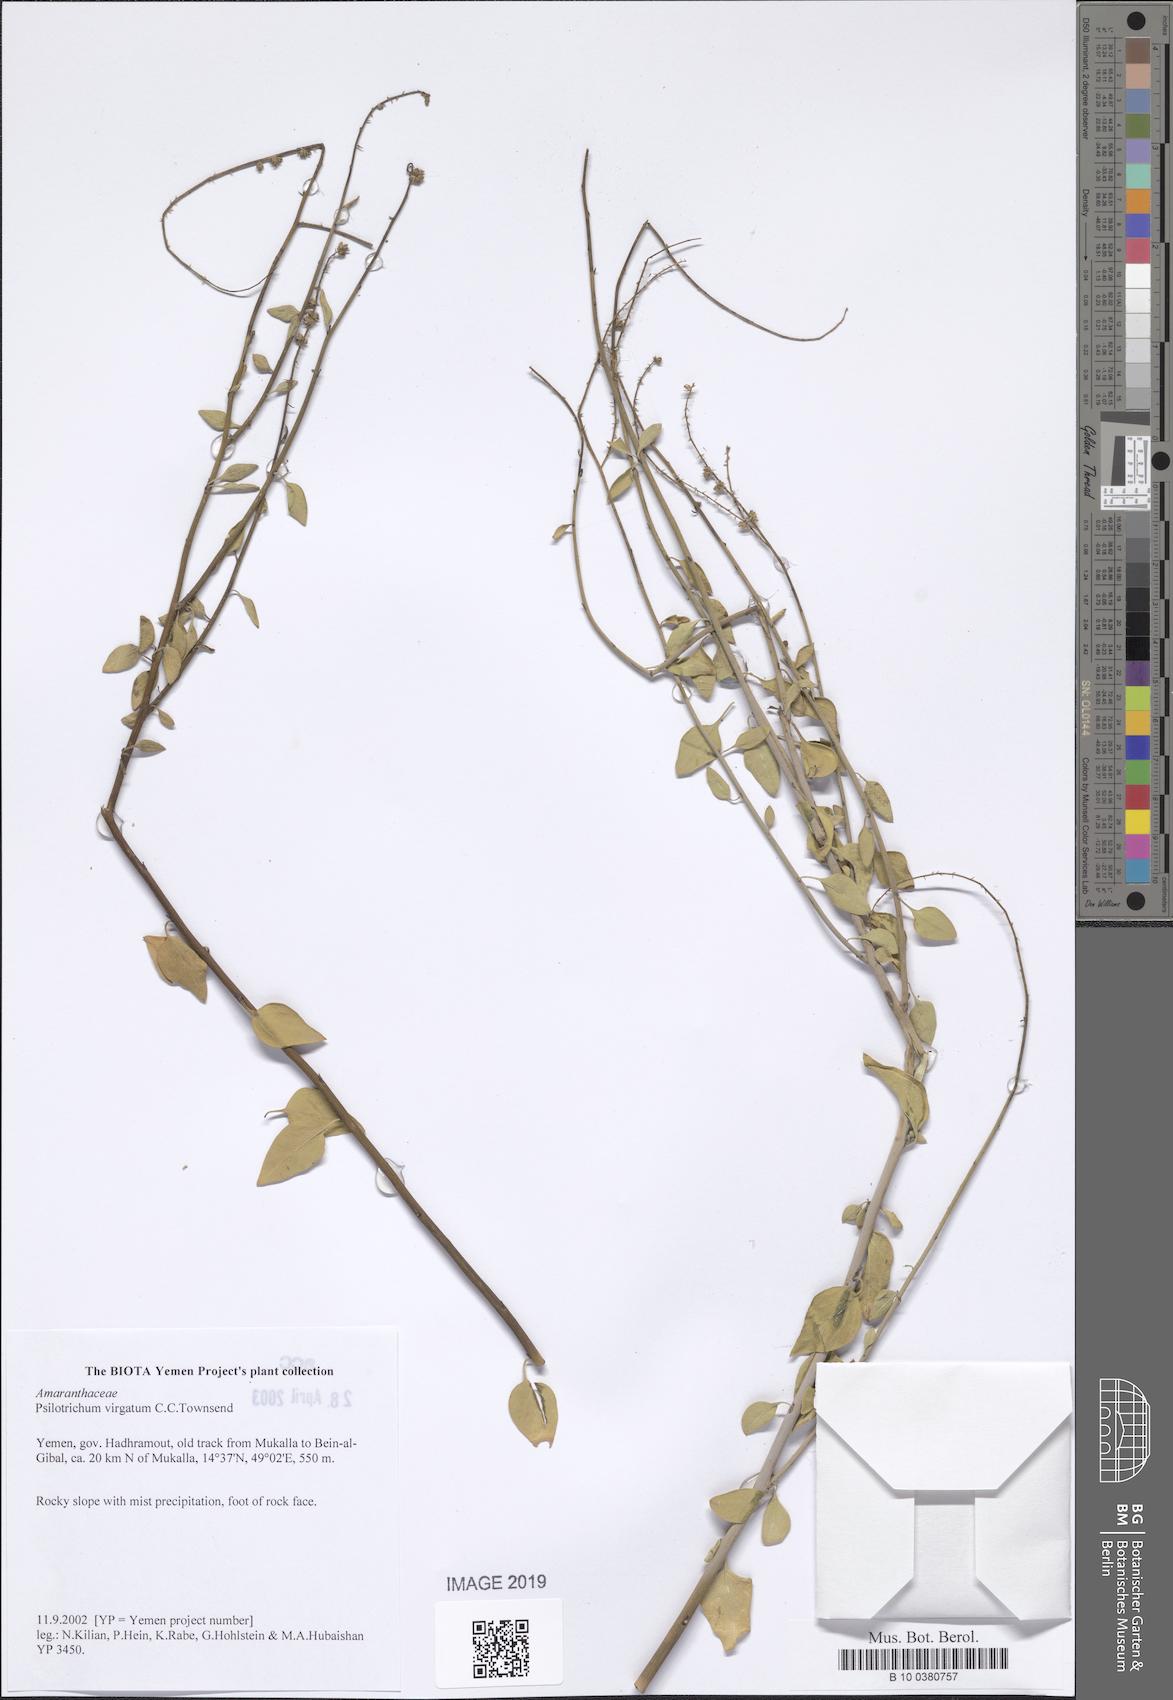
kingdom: Plantae
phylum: Tracheophyta
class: Magnoliopsida
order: Caryophyllales
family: Amaranthaceae
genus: Psilotrichum
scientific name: Psilotrichum virgatum
